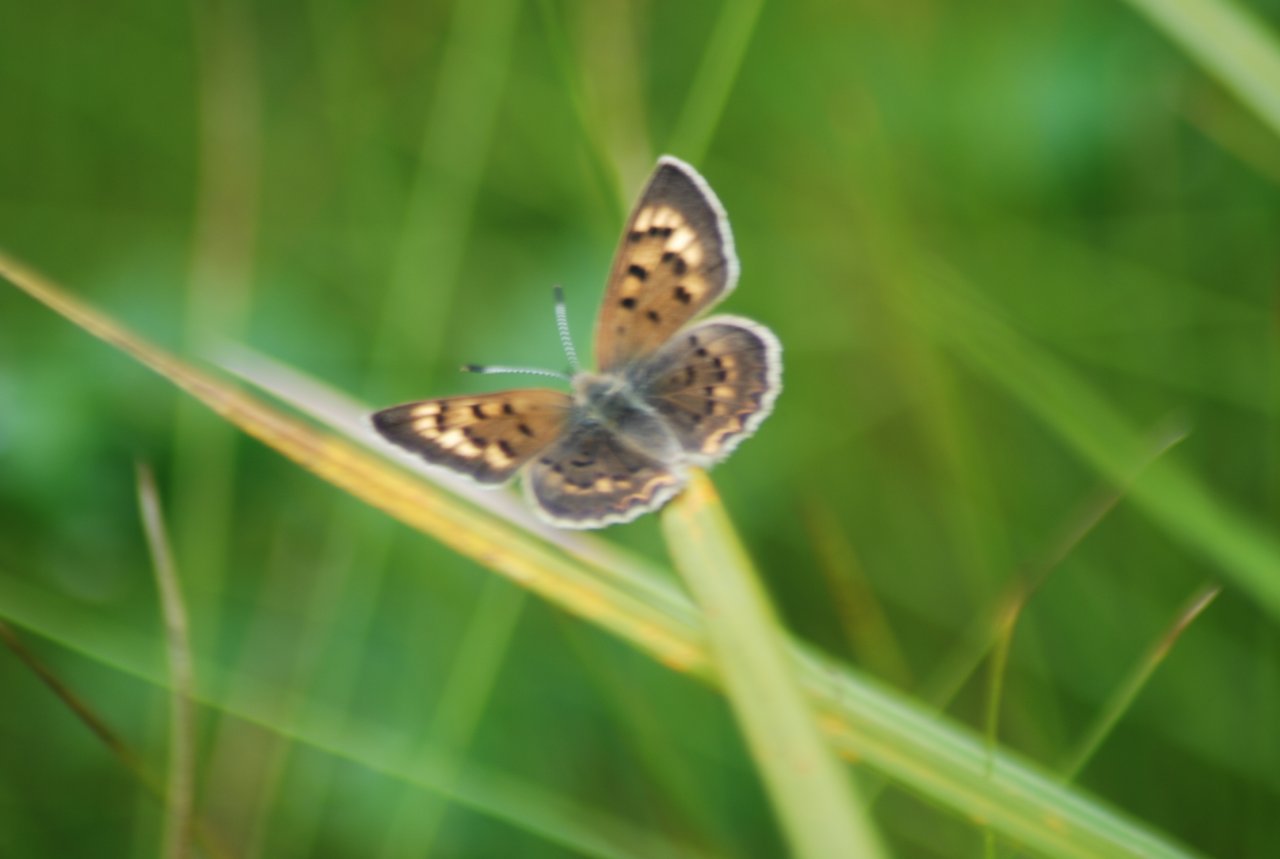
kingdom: Animalia
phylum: Arthropoda
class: Insecta
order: Lepidoptera
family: Lycaenidae
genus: Epidemia
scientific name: Epidemia dorcas
